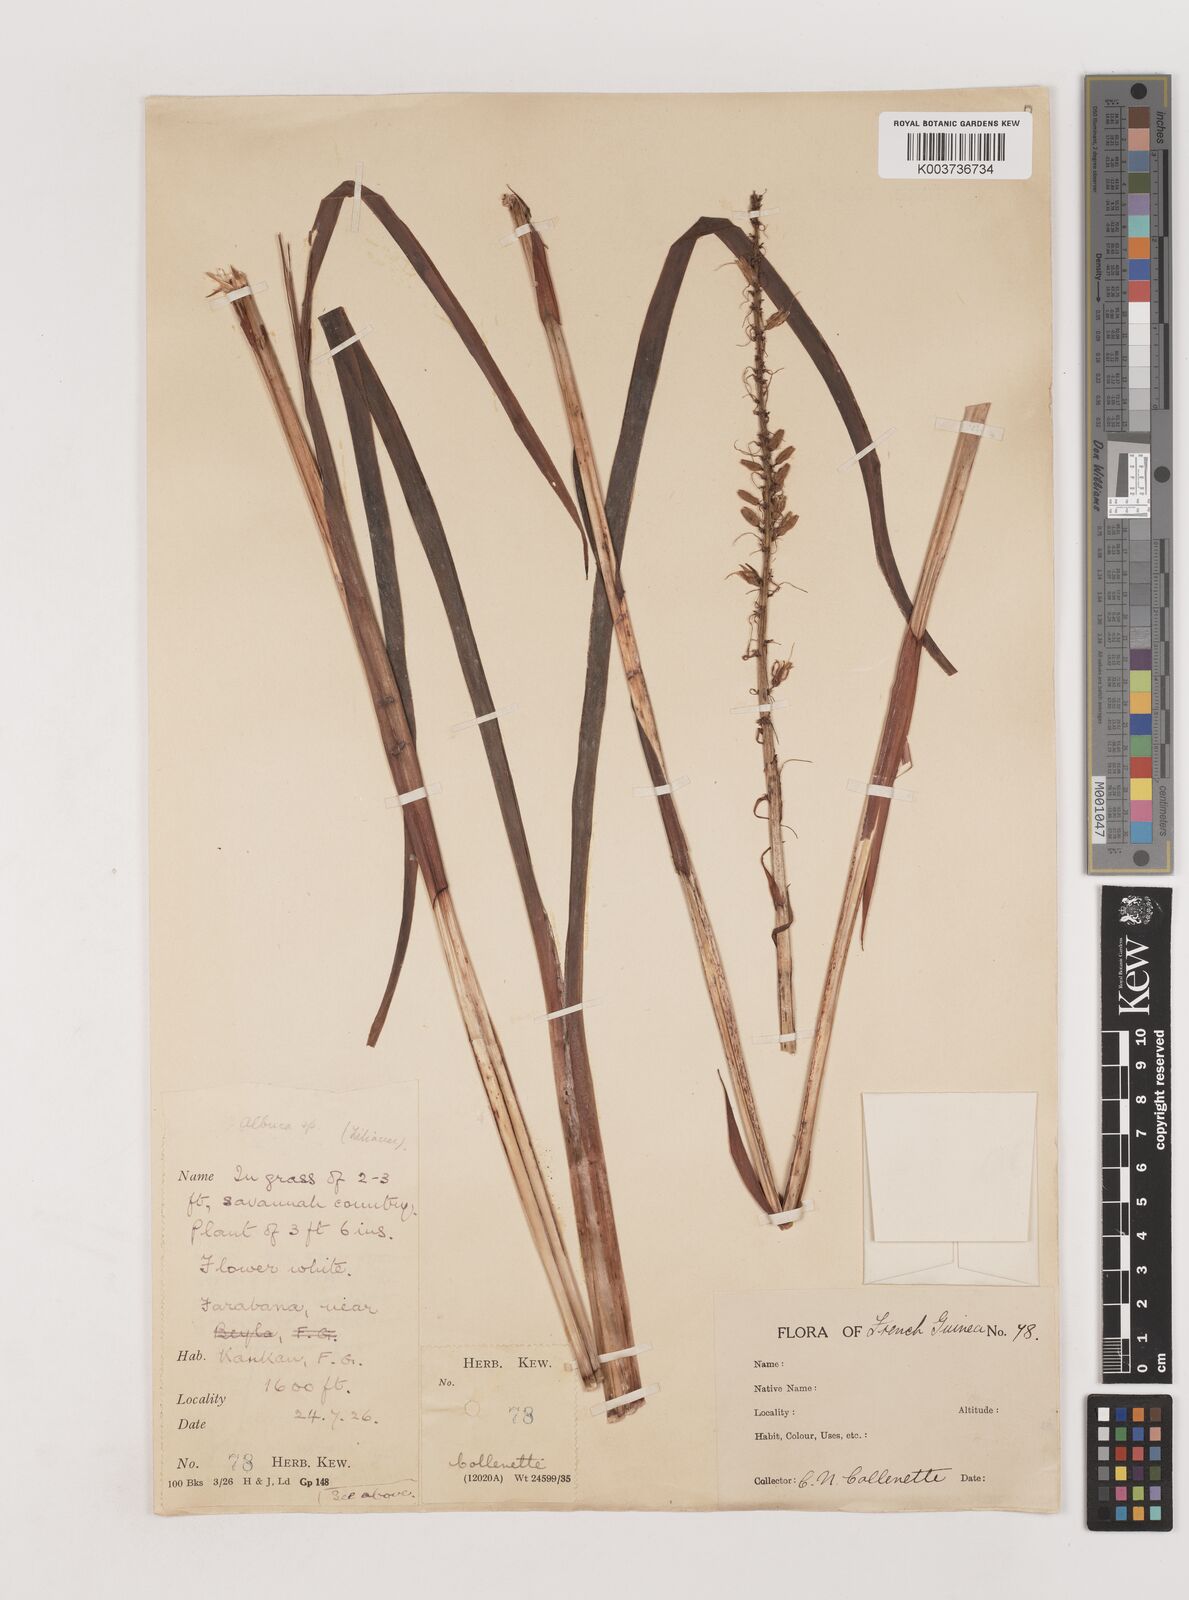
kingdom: Plantae
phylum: Tracheophyta
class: Liliopsida
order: Asparagales
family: Asparagaceae
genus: Chlorophytum
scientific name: Chlorophytum senegalense
